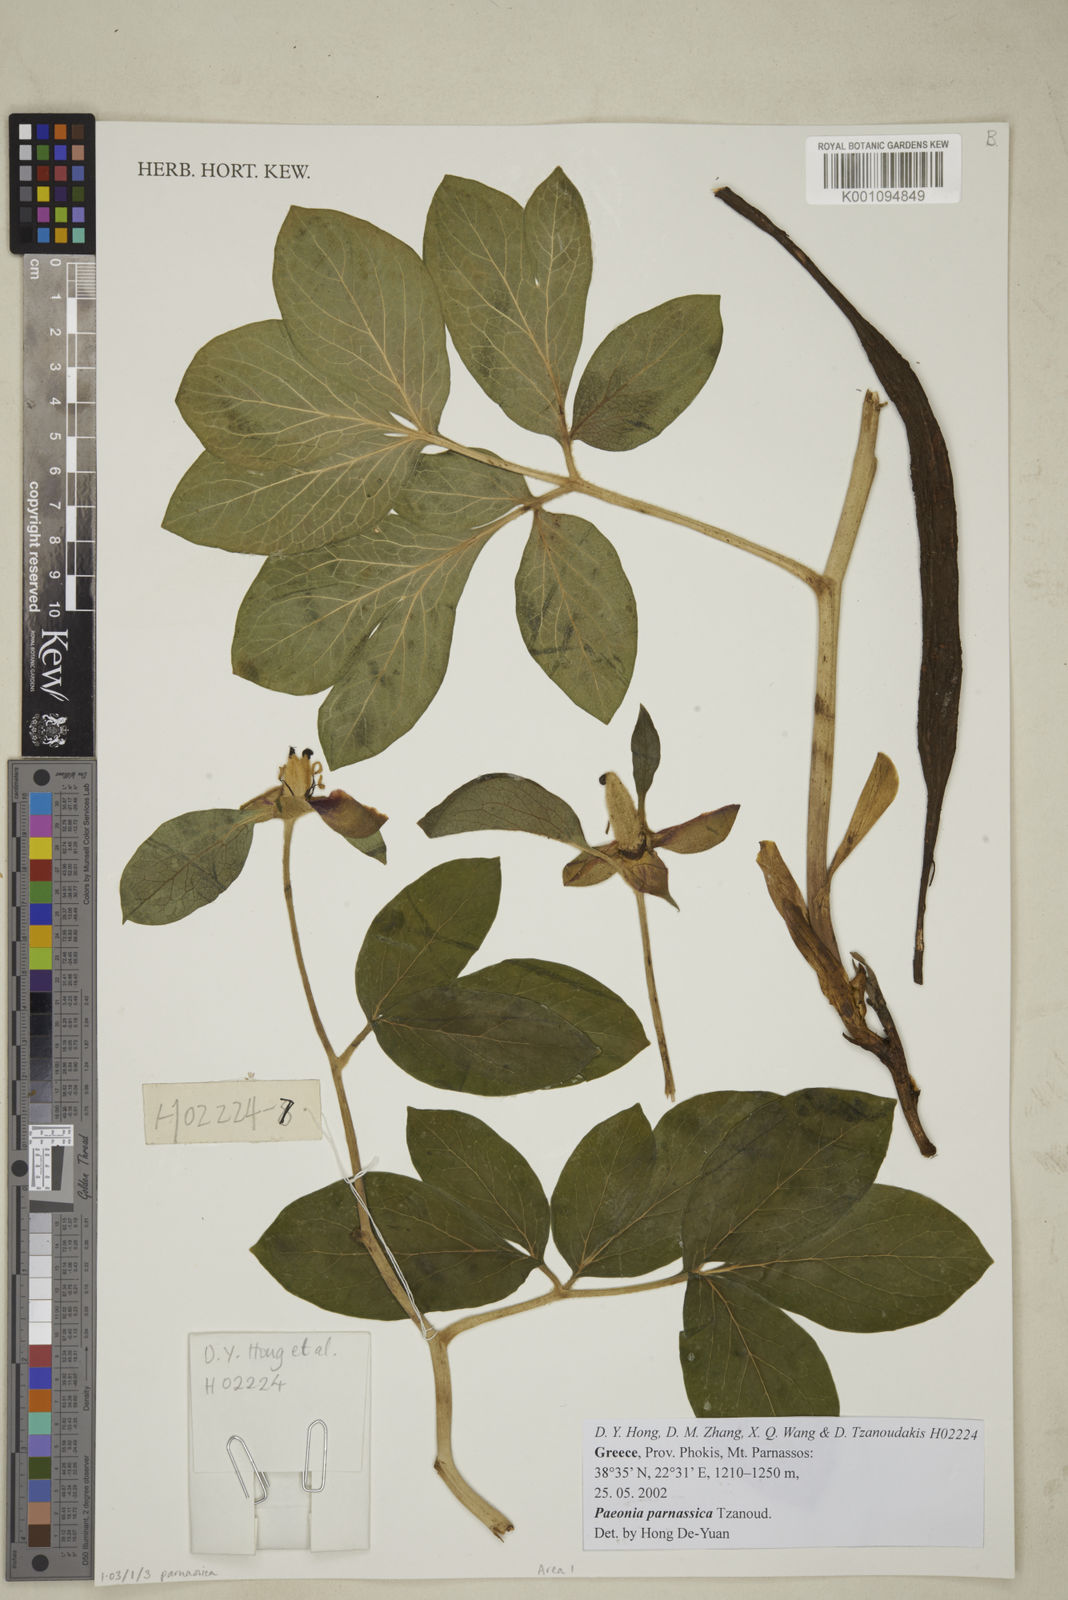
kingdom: Plantae
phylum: Tracheophyta
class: Magnoliopsida
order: Saxifragales
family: Paeoniaceae
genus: Paeonia
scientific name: Paeonia parnassica
